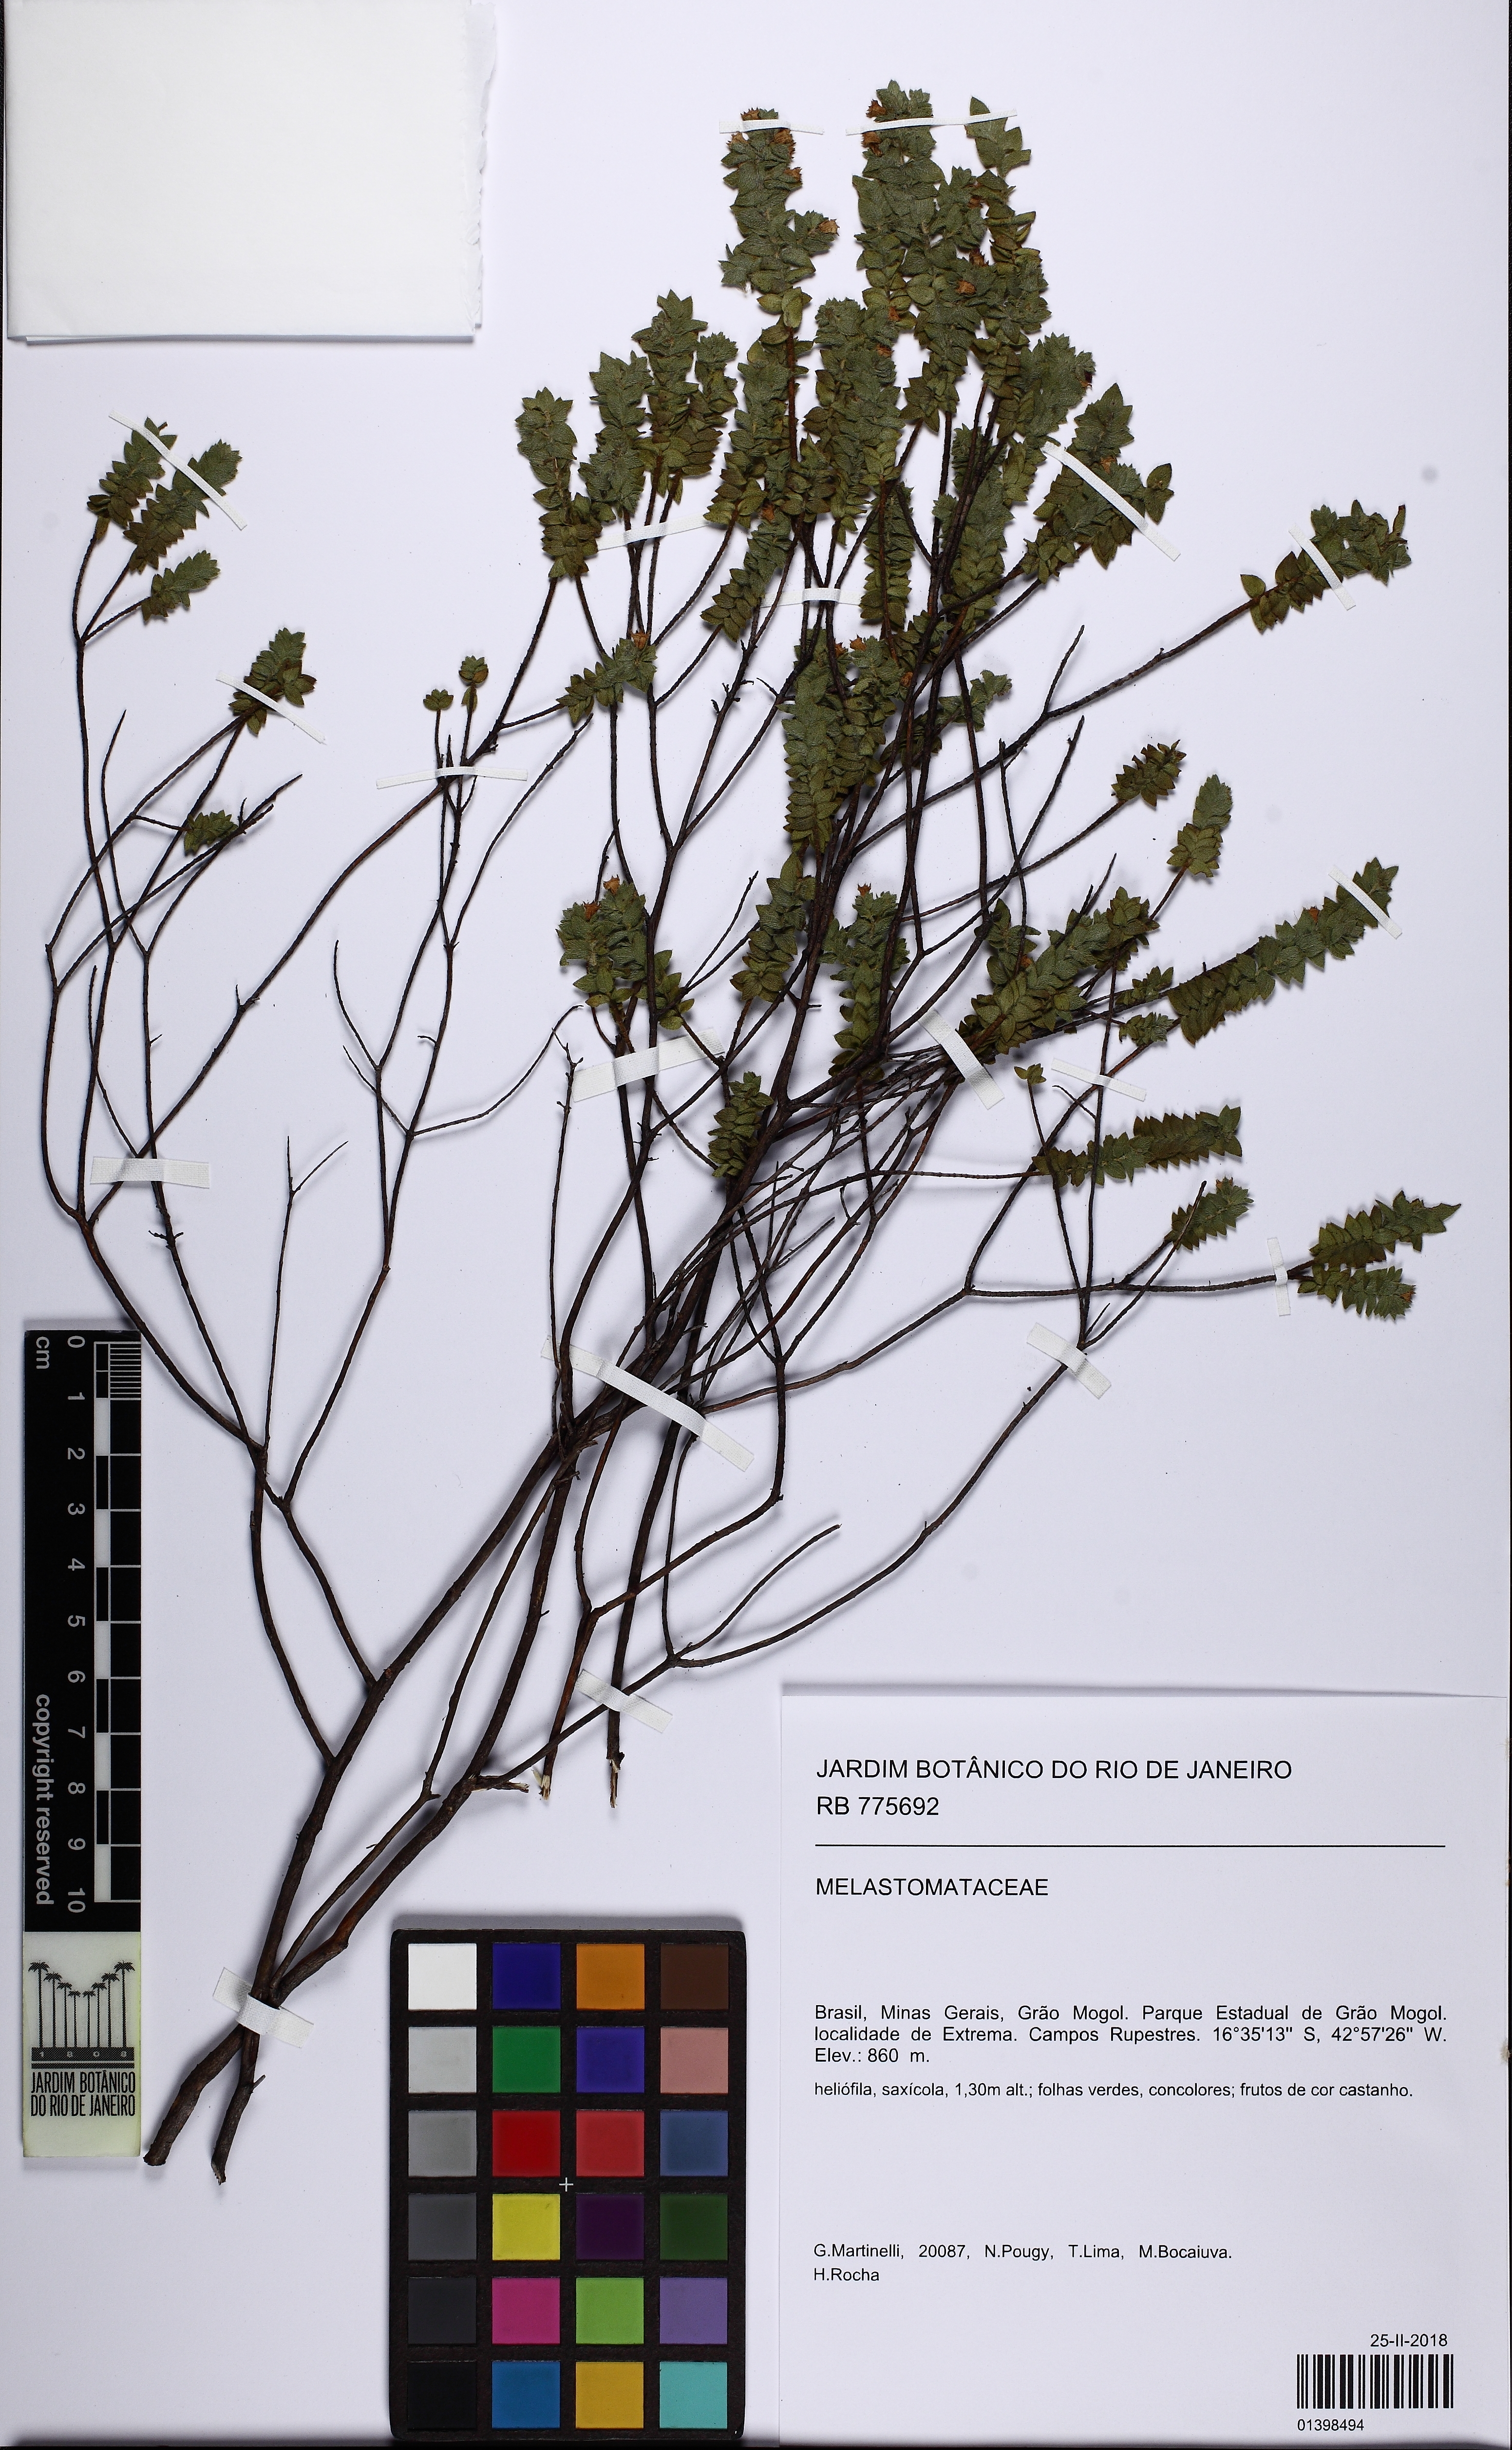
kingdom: Plantae
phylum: Tracheophyta
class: Magnoliopsida
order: Myrtales
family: Melastomataceae
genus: Microlicia
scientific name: Microlicia graveolens
